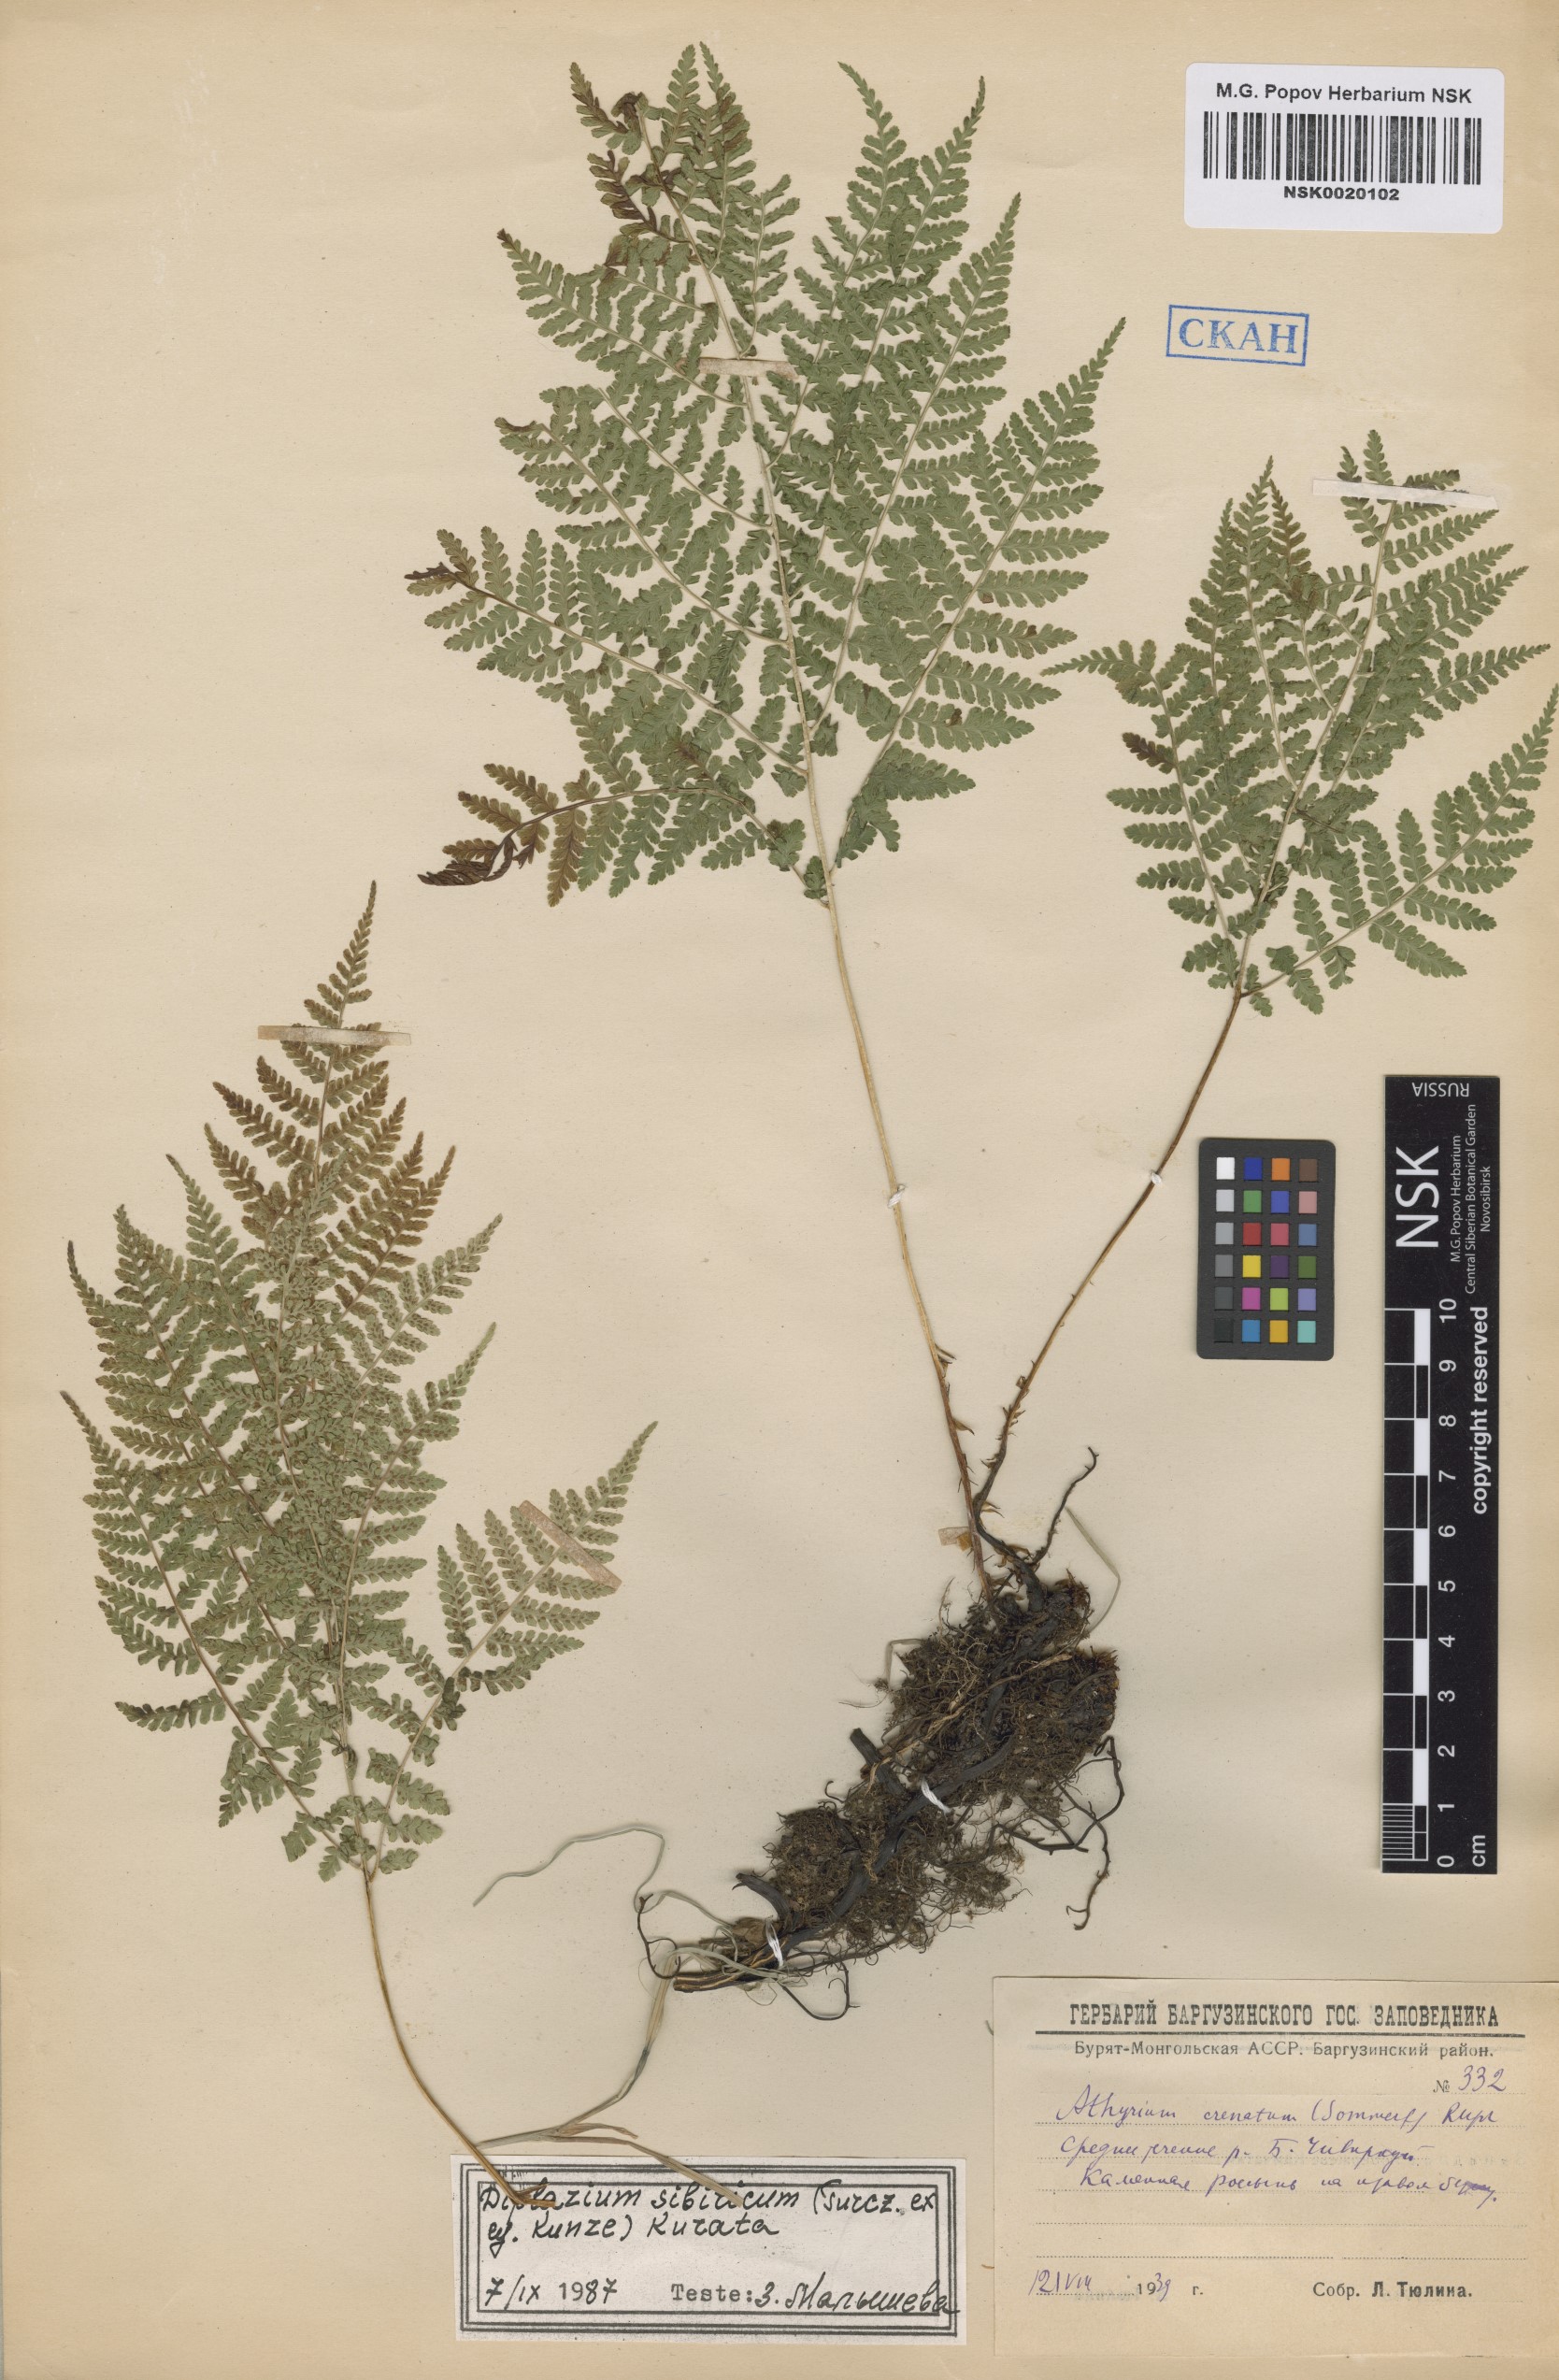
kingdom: Plantae
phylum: Tracheophyta
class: Polypodiopsida
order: Polypodiales
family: Athyriaceae
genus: Diplazium
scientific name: Diplazium sibiricum
